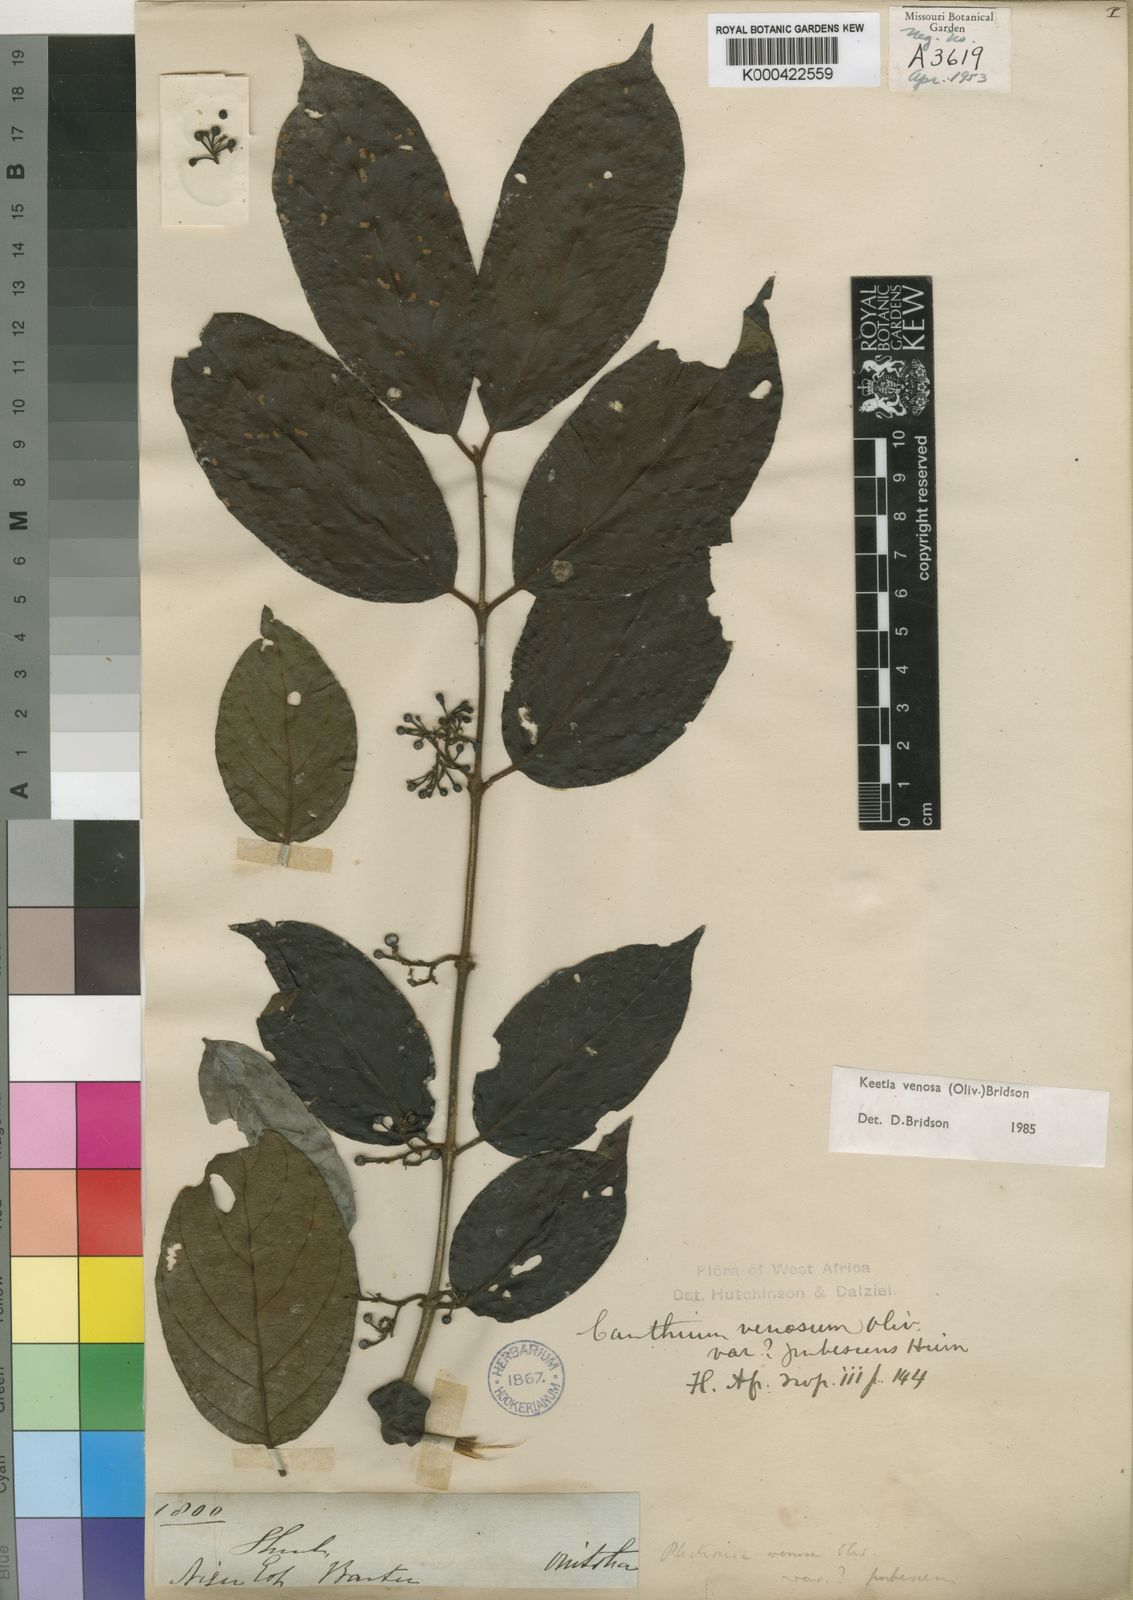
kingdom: Plantae
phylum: Tracheophyta
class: Magnoliopsida
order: Gentianales
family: Rubiaceae
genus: Keetia
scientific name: Keetia venosa
